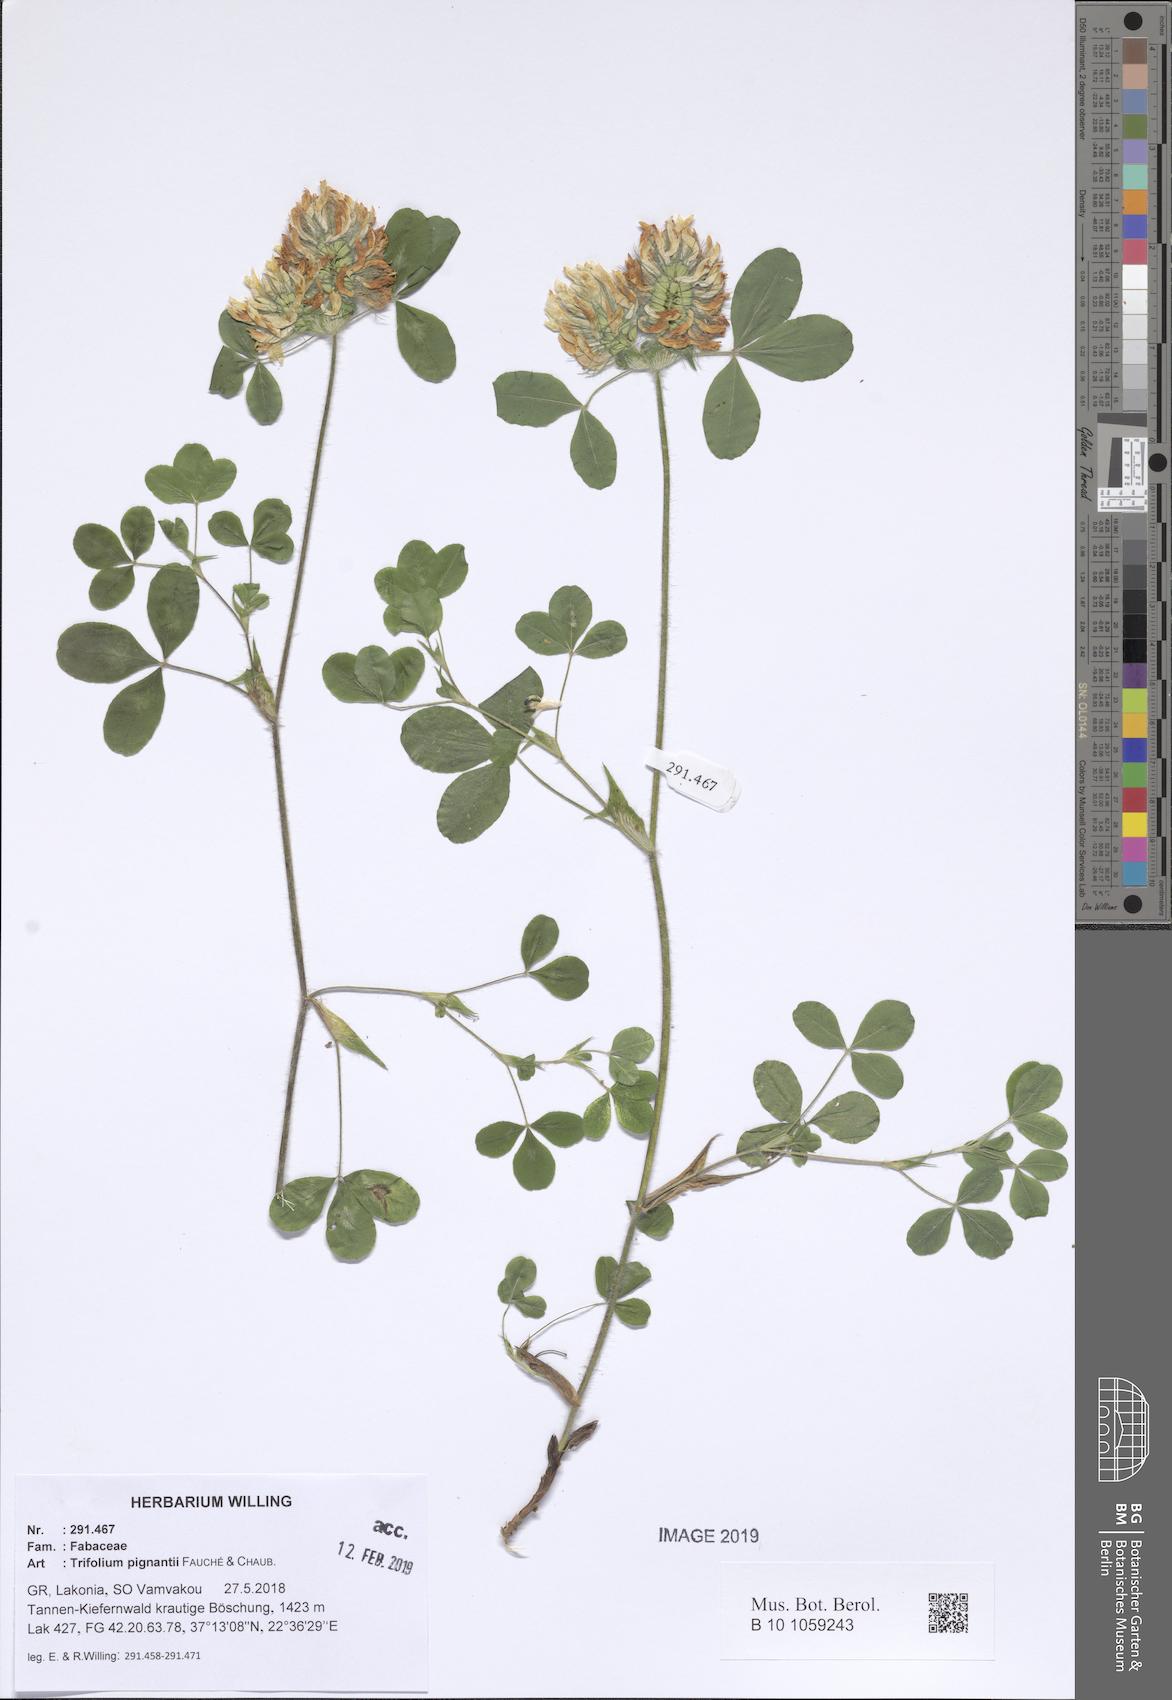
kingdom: Plantae
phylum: Tracheophyta
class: Magnoliopsida
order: Fabales
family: Fabaceae
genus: Trifolium
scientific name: Trifolium pignantii
